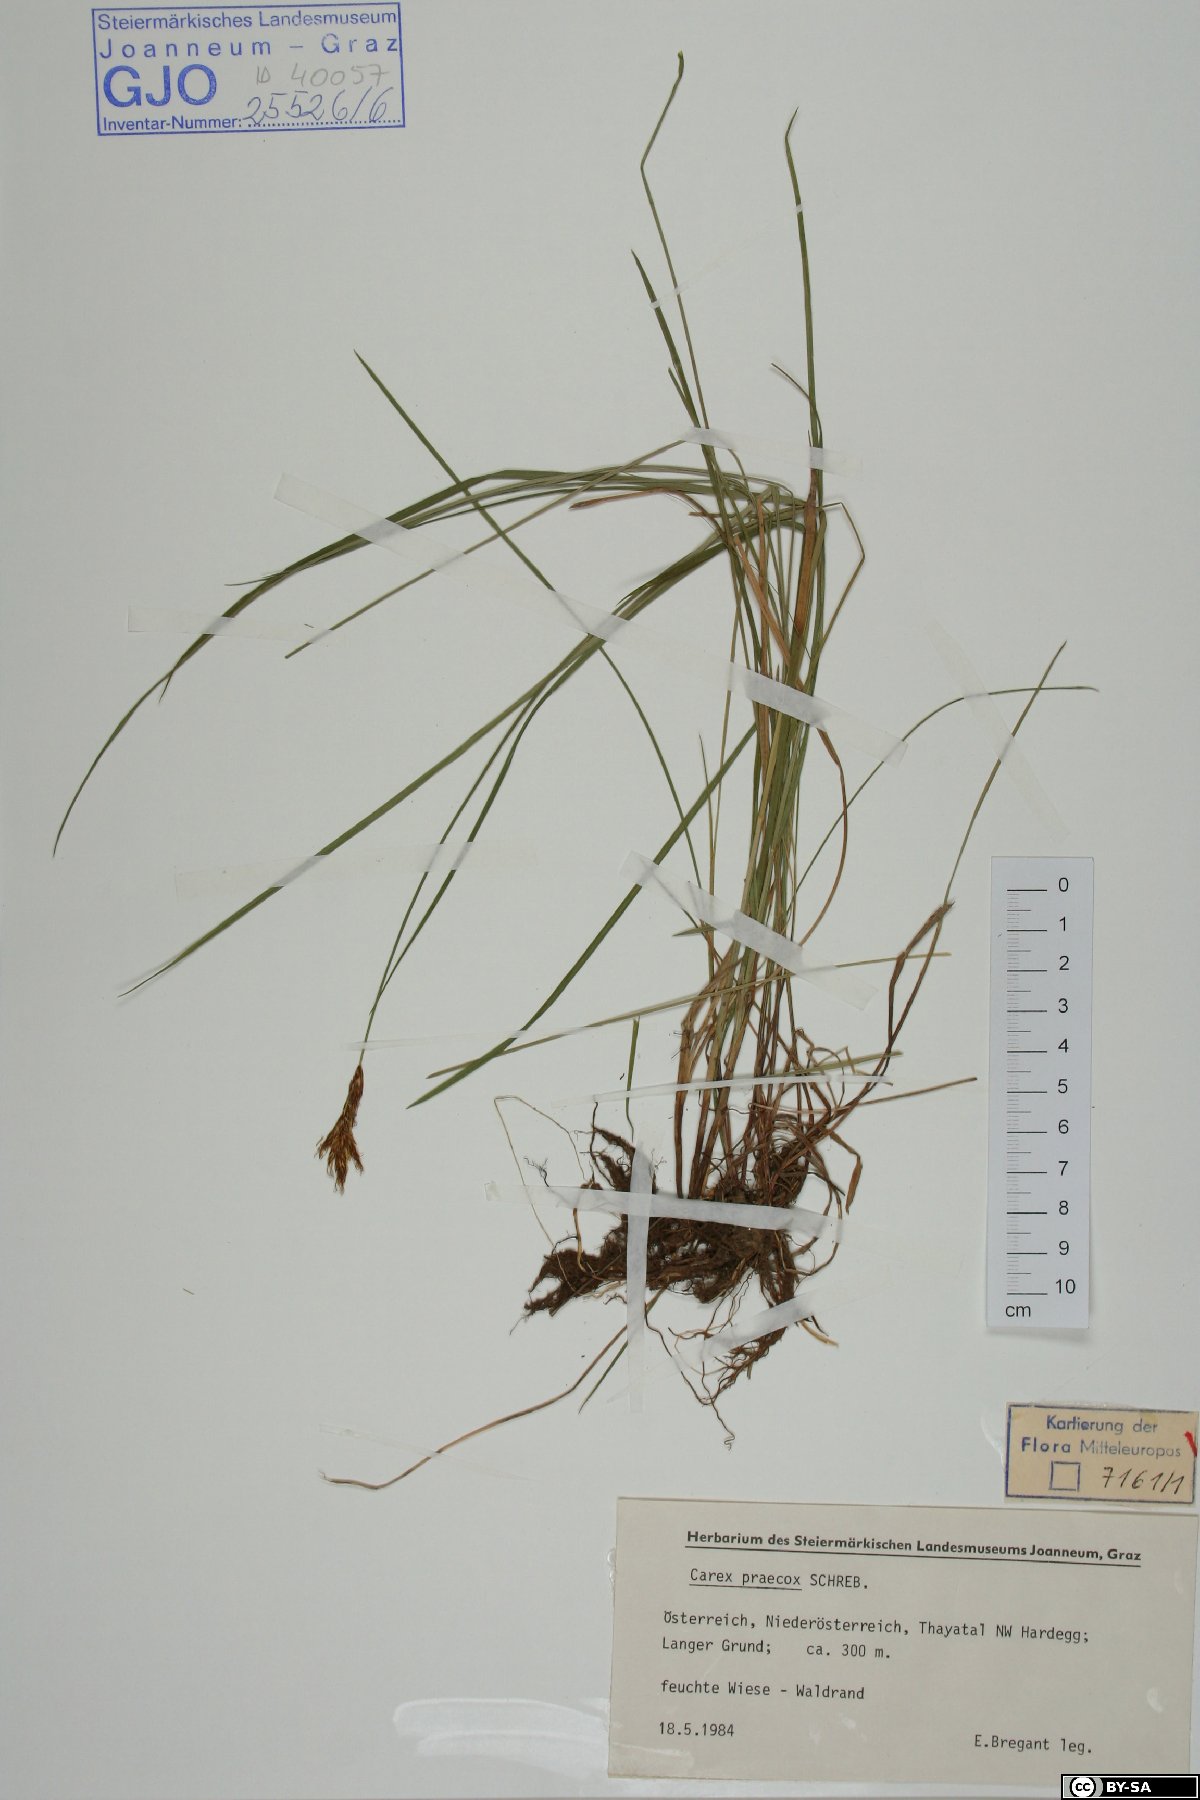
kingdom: Plantae
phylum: Tracheophyta
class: Liliopsida
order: Poales
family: Cyperaceae
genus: Carex
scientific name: Carex praecox
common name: Early sedge
